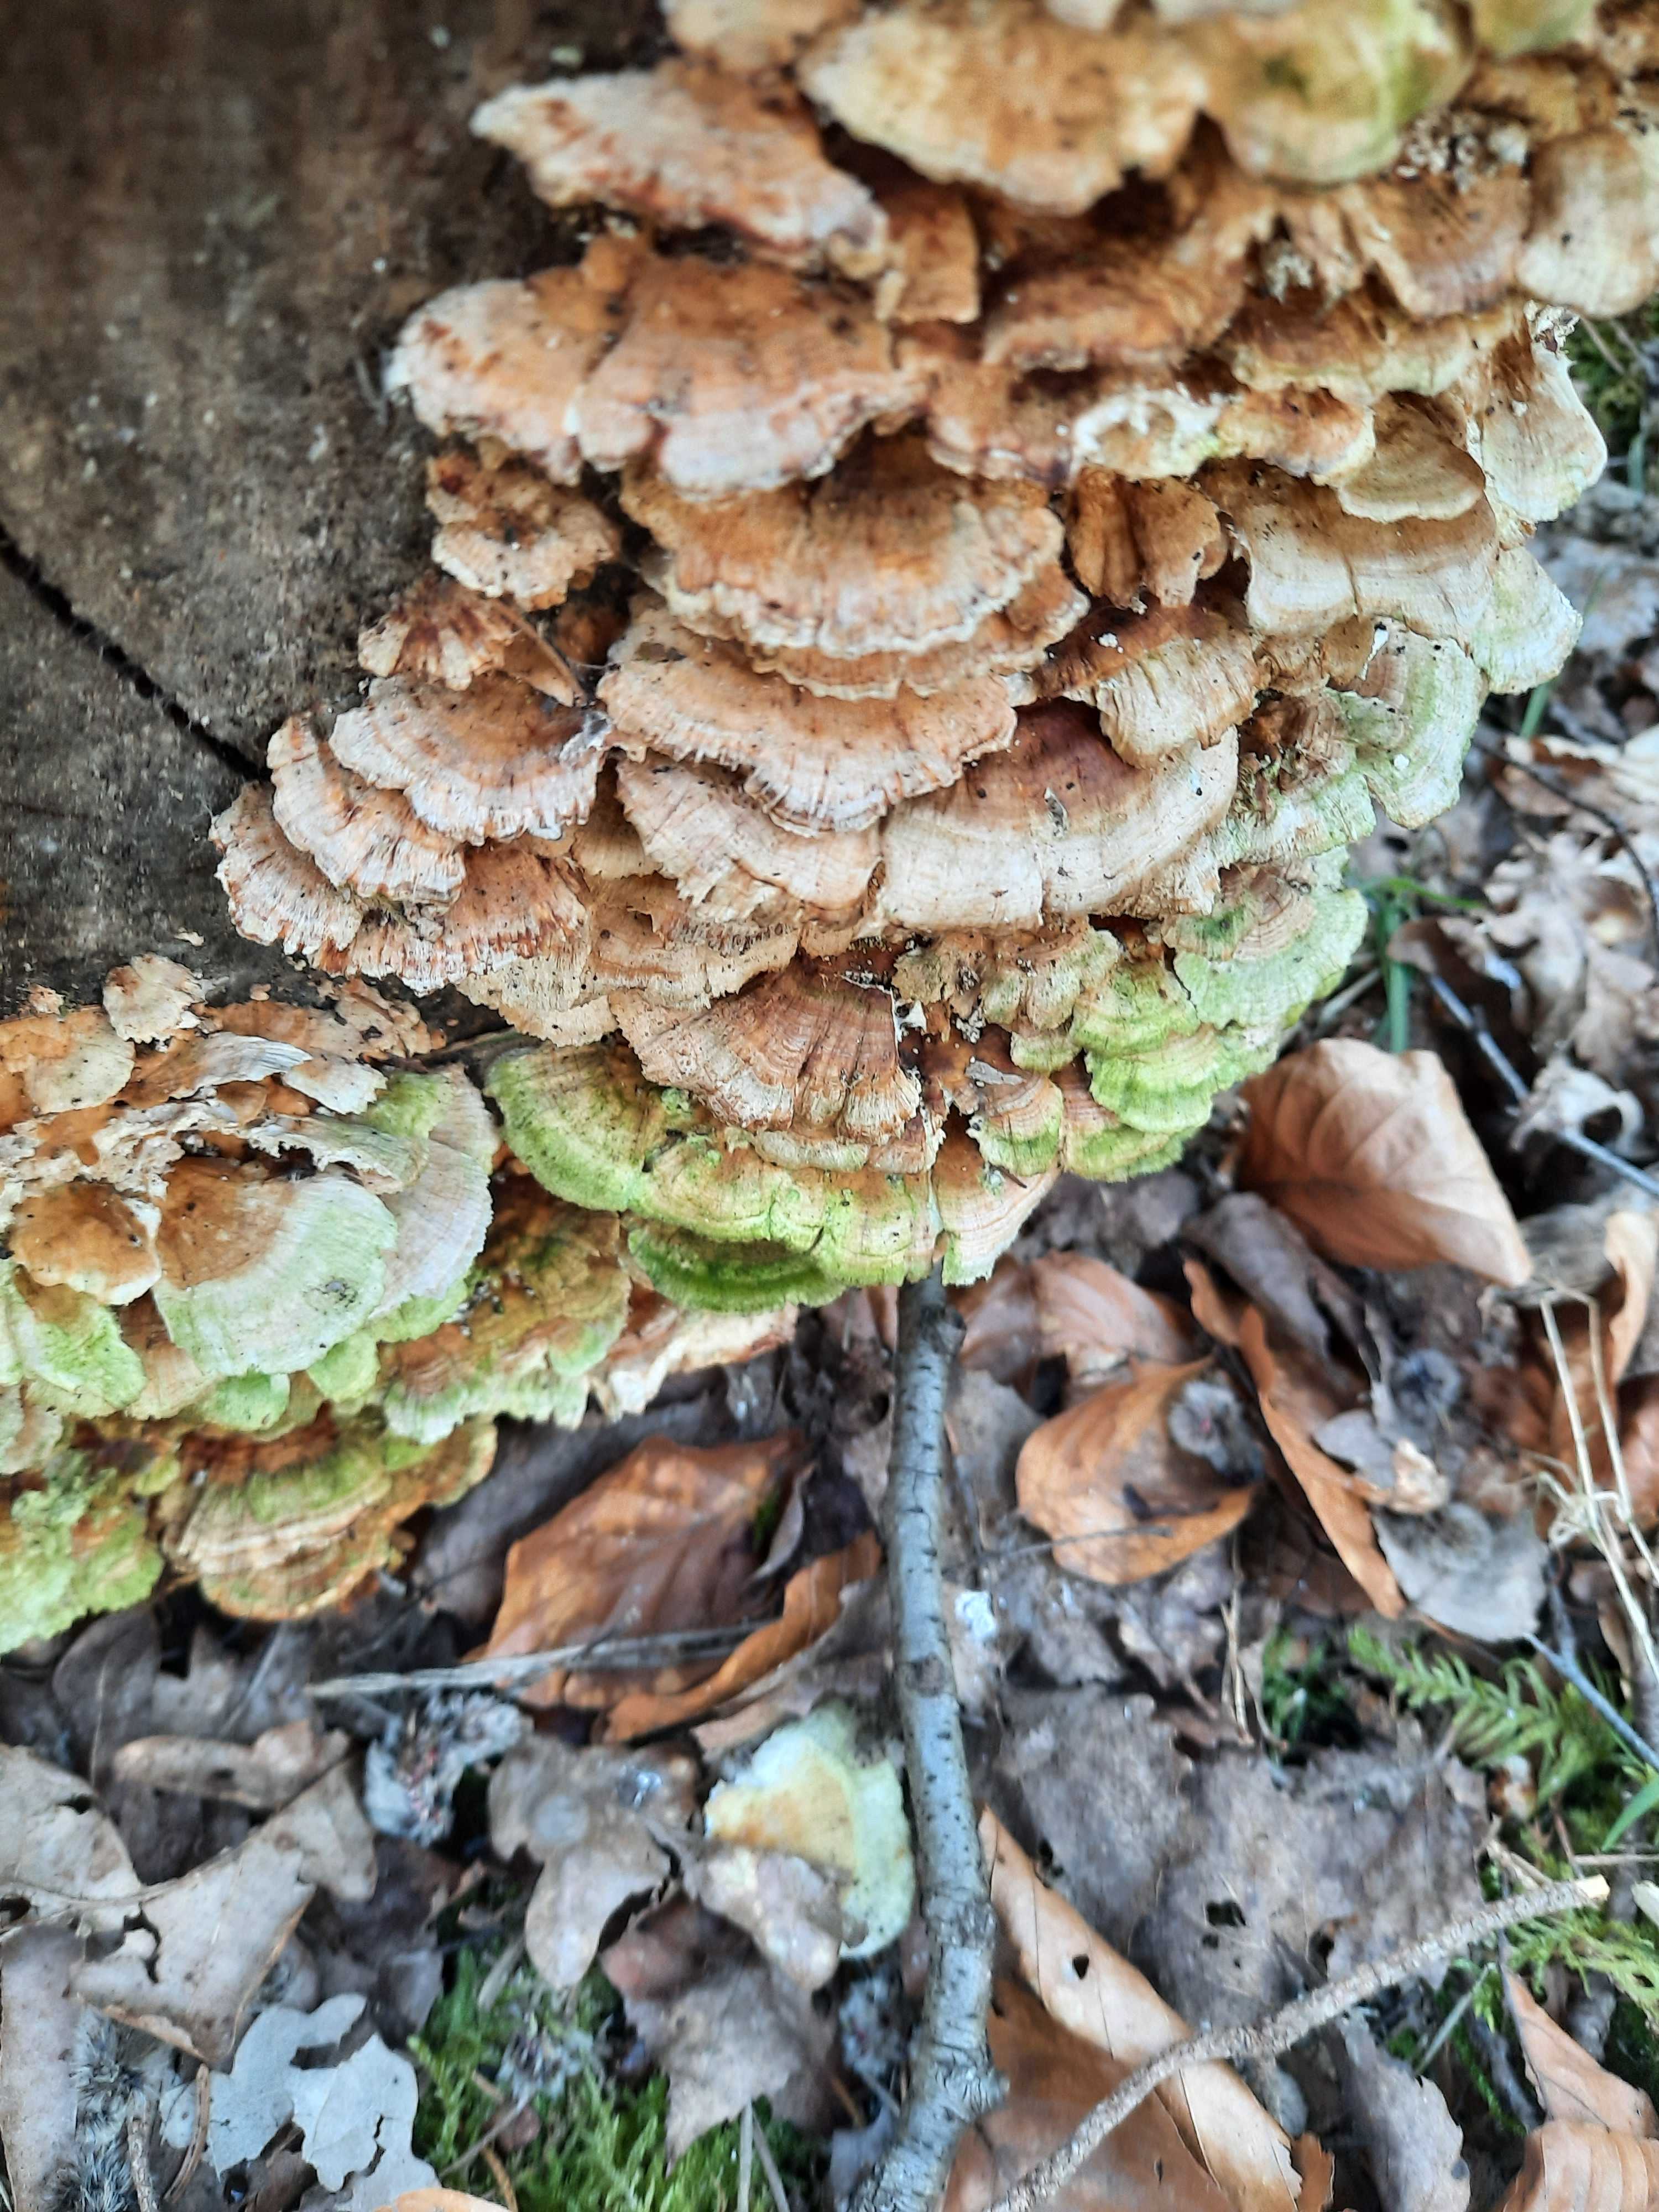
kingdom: Fungi
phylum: Basidiomycota
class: Agaricomycetes
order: Polyporales
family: Polyporaceae
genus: Trametes
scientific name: Trametes ochracea
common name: bæltet læderporesvamp
